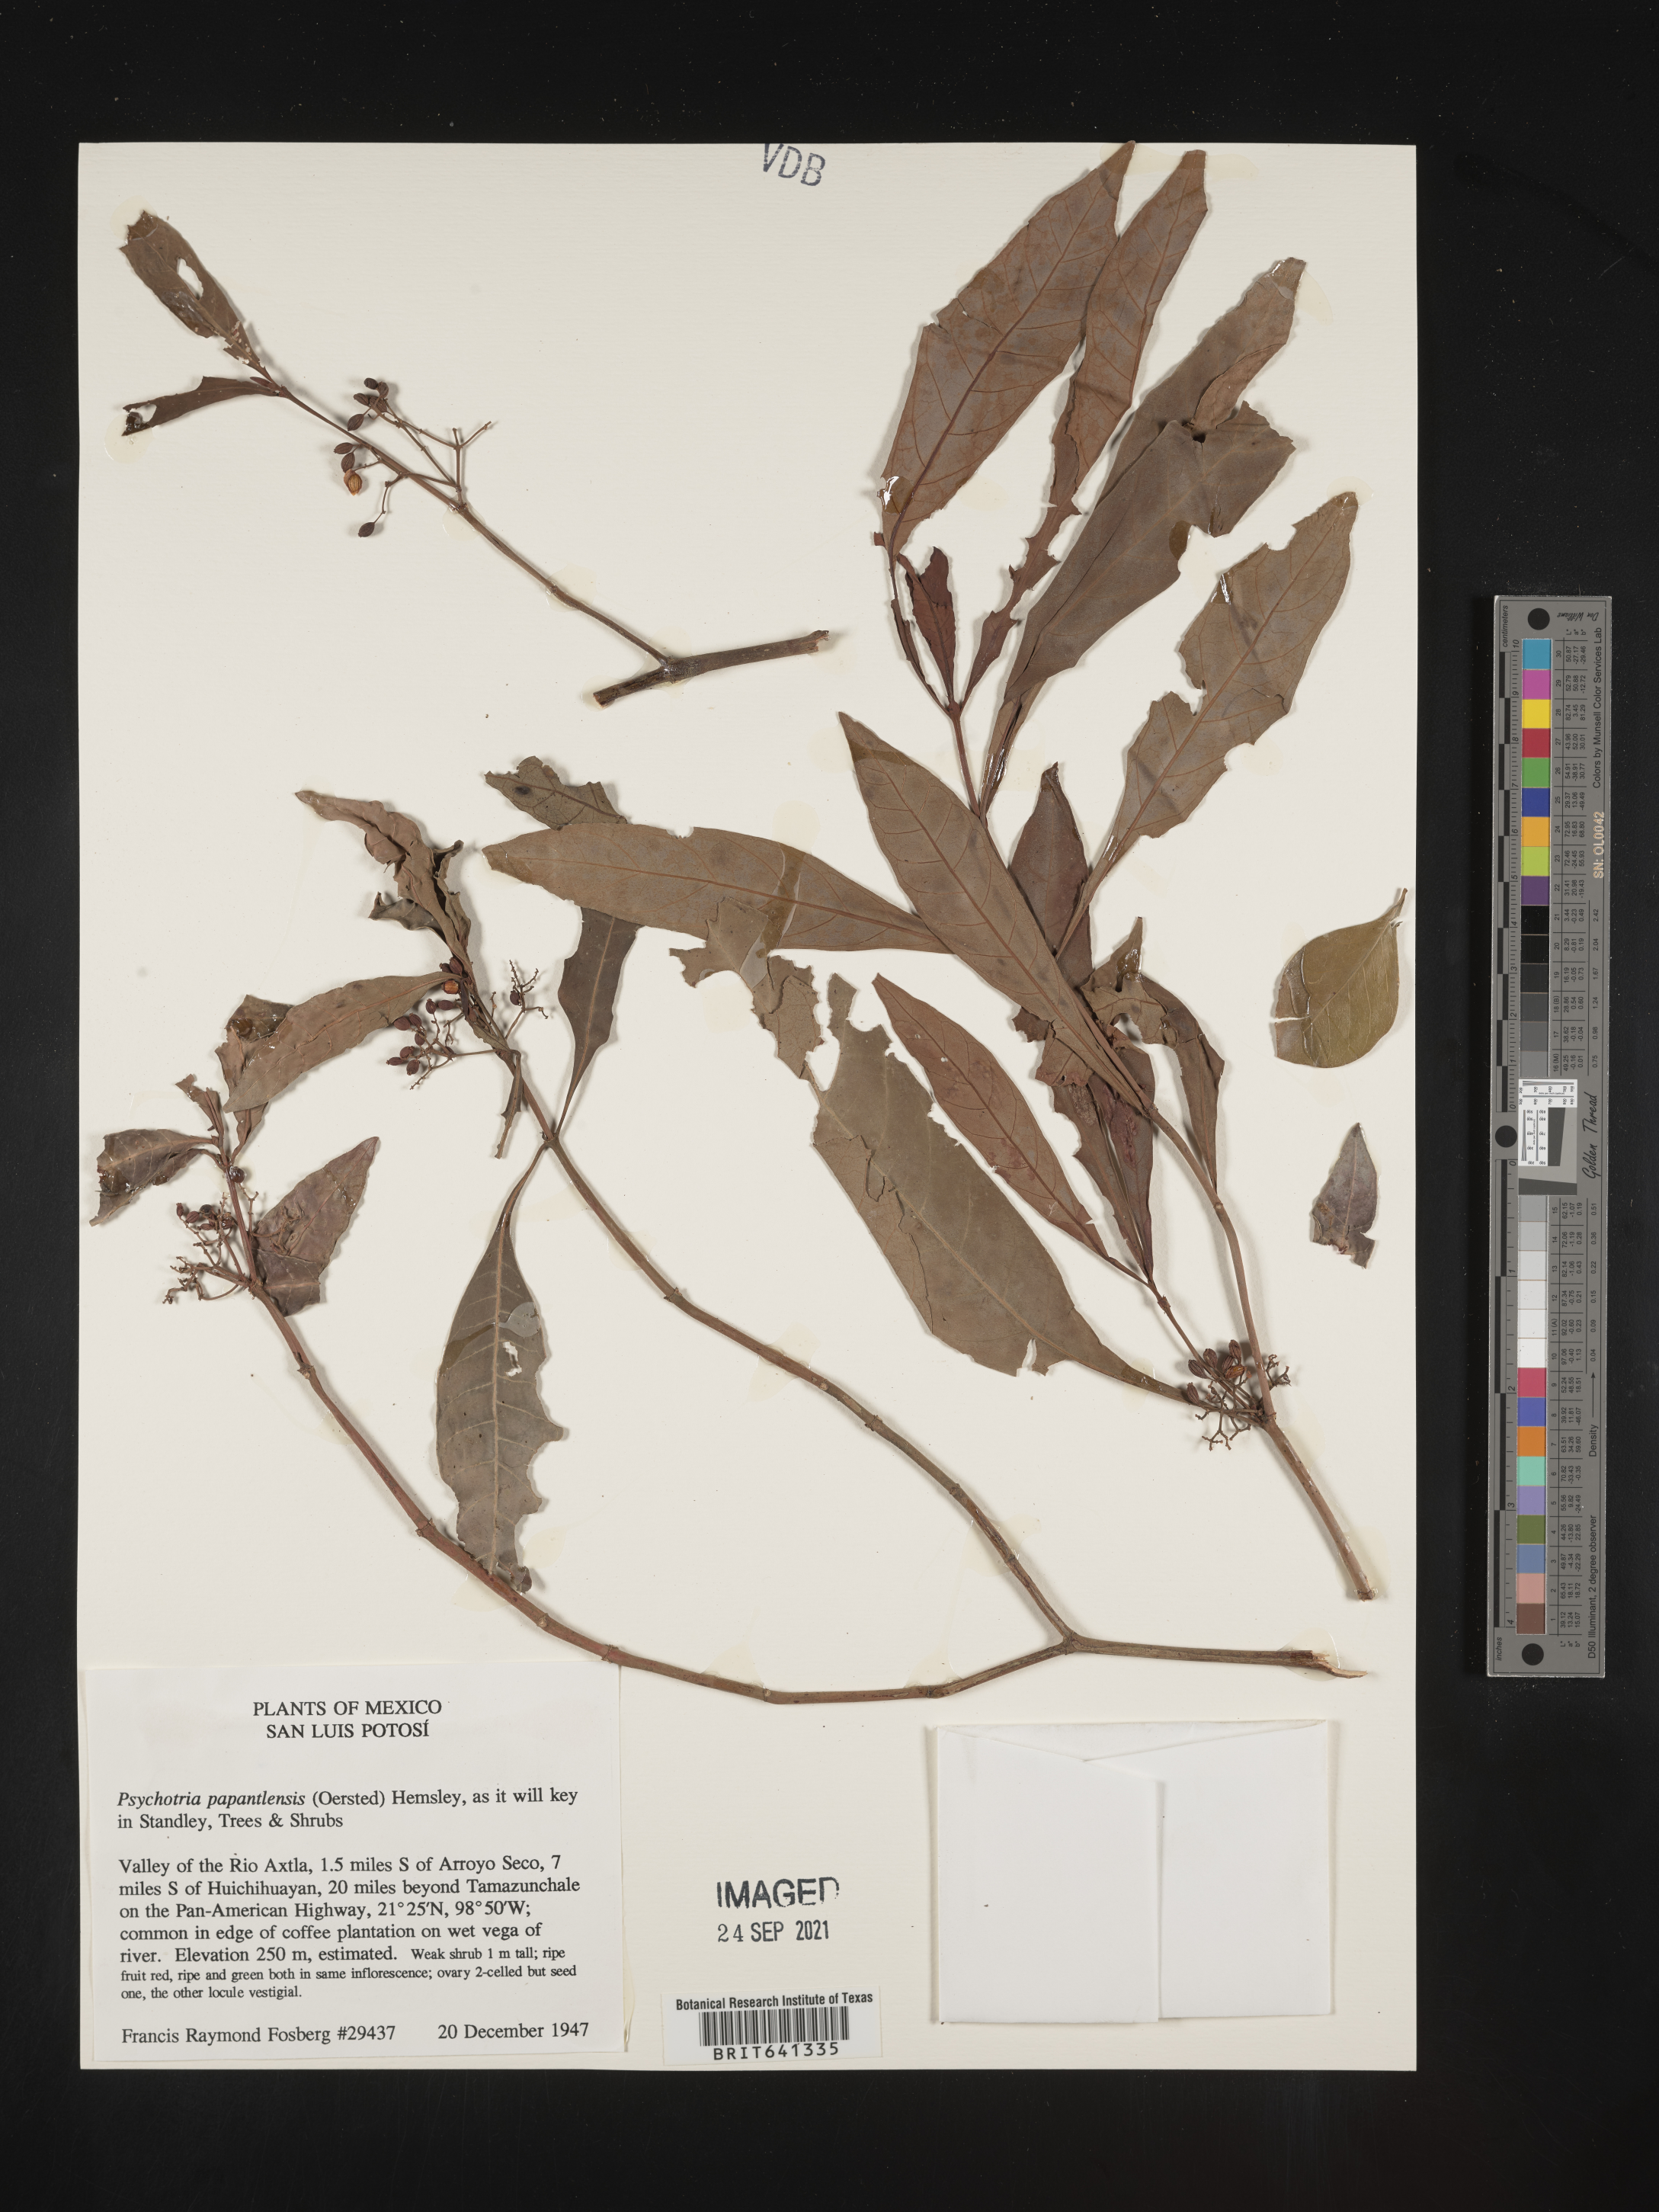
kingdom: Plantae
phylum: Tracheophyta
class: Magnoliopsida
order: Gentianales
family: Rubiaceae
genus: Psychotria
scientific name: Psychotria
